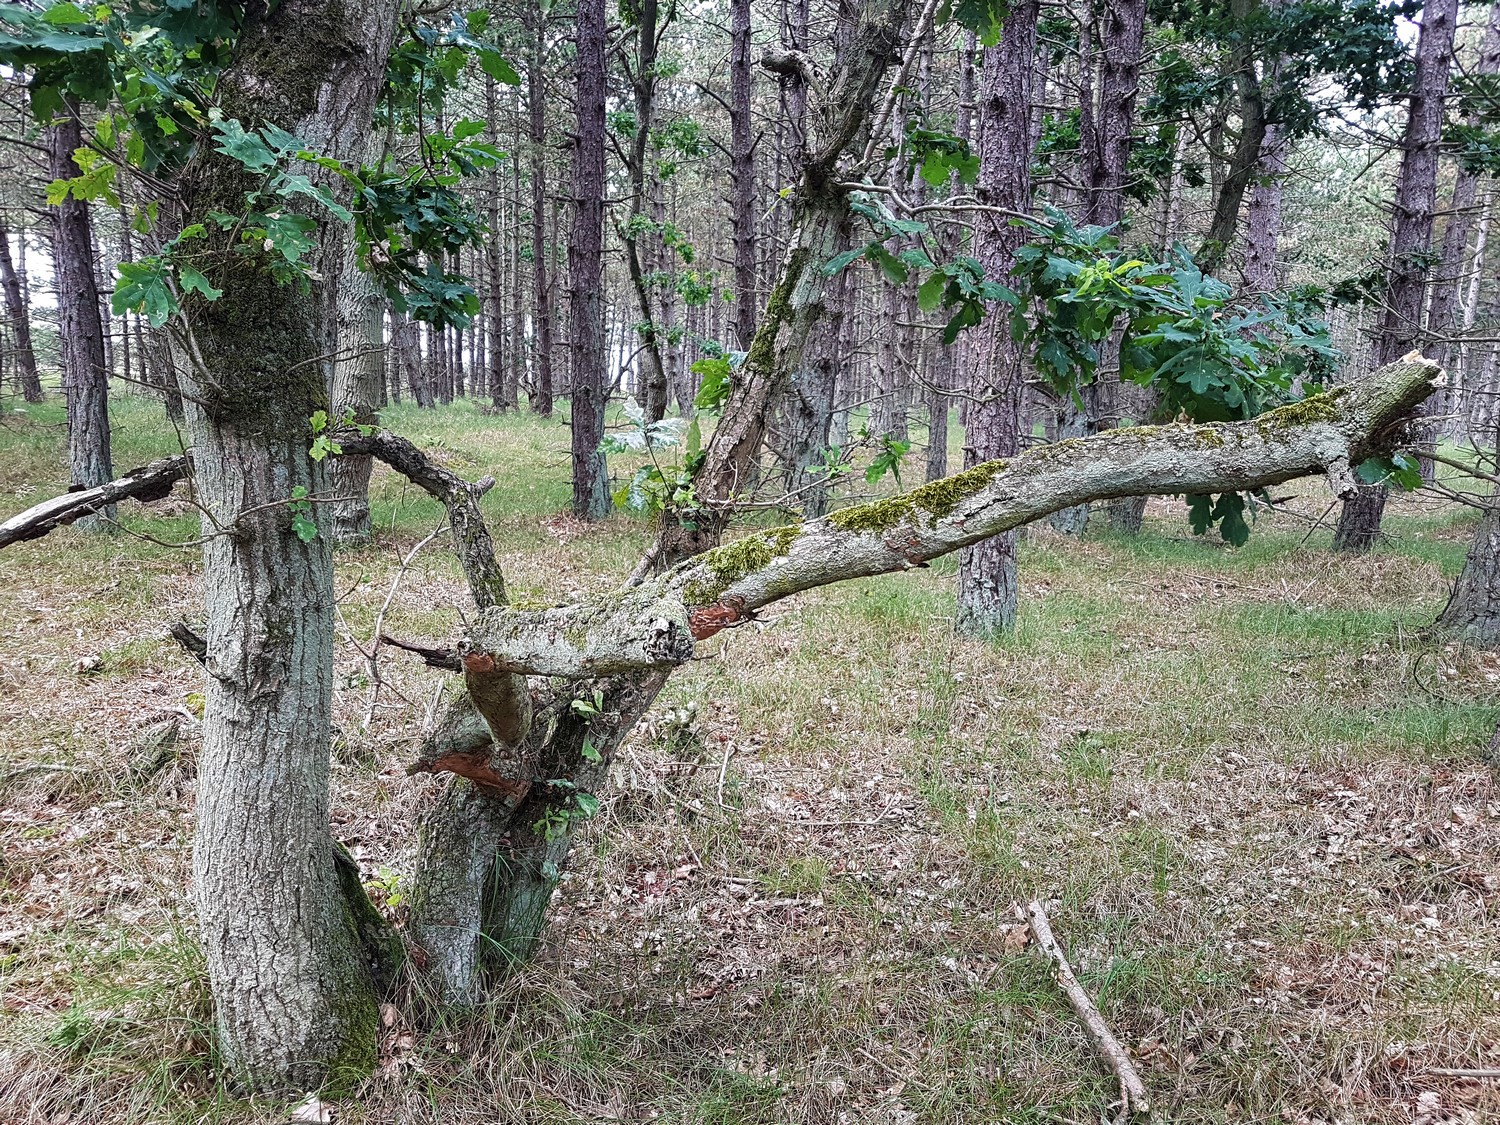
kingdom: Fungi
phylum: Basidiomycota
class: Agaricomycetes
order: Hymenochaetales
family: Hymenochaetaceae
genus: Fuscoporia
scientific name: Fuscoporia ferrea
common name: skorpe-ildporesvamp
